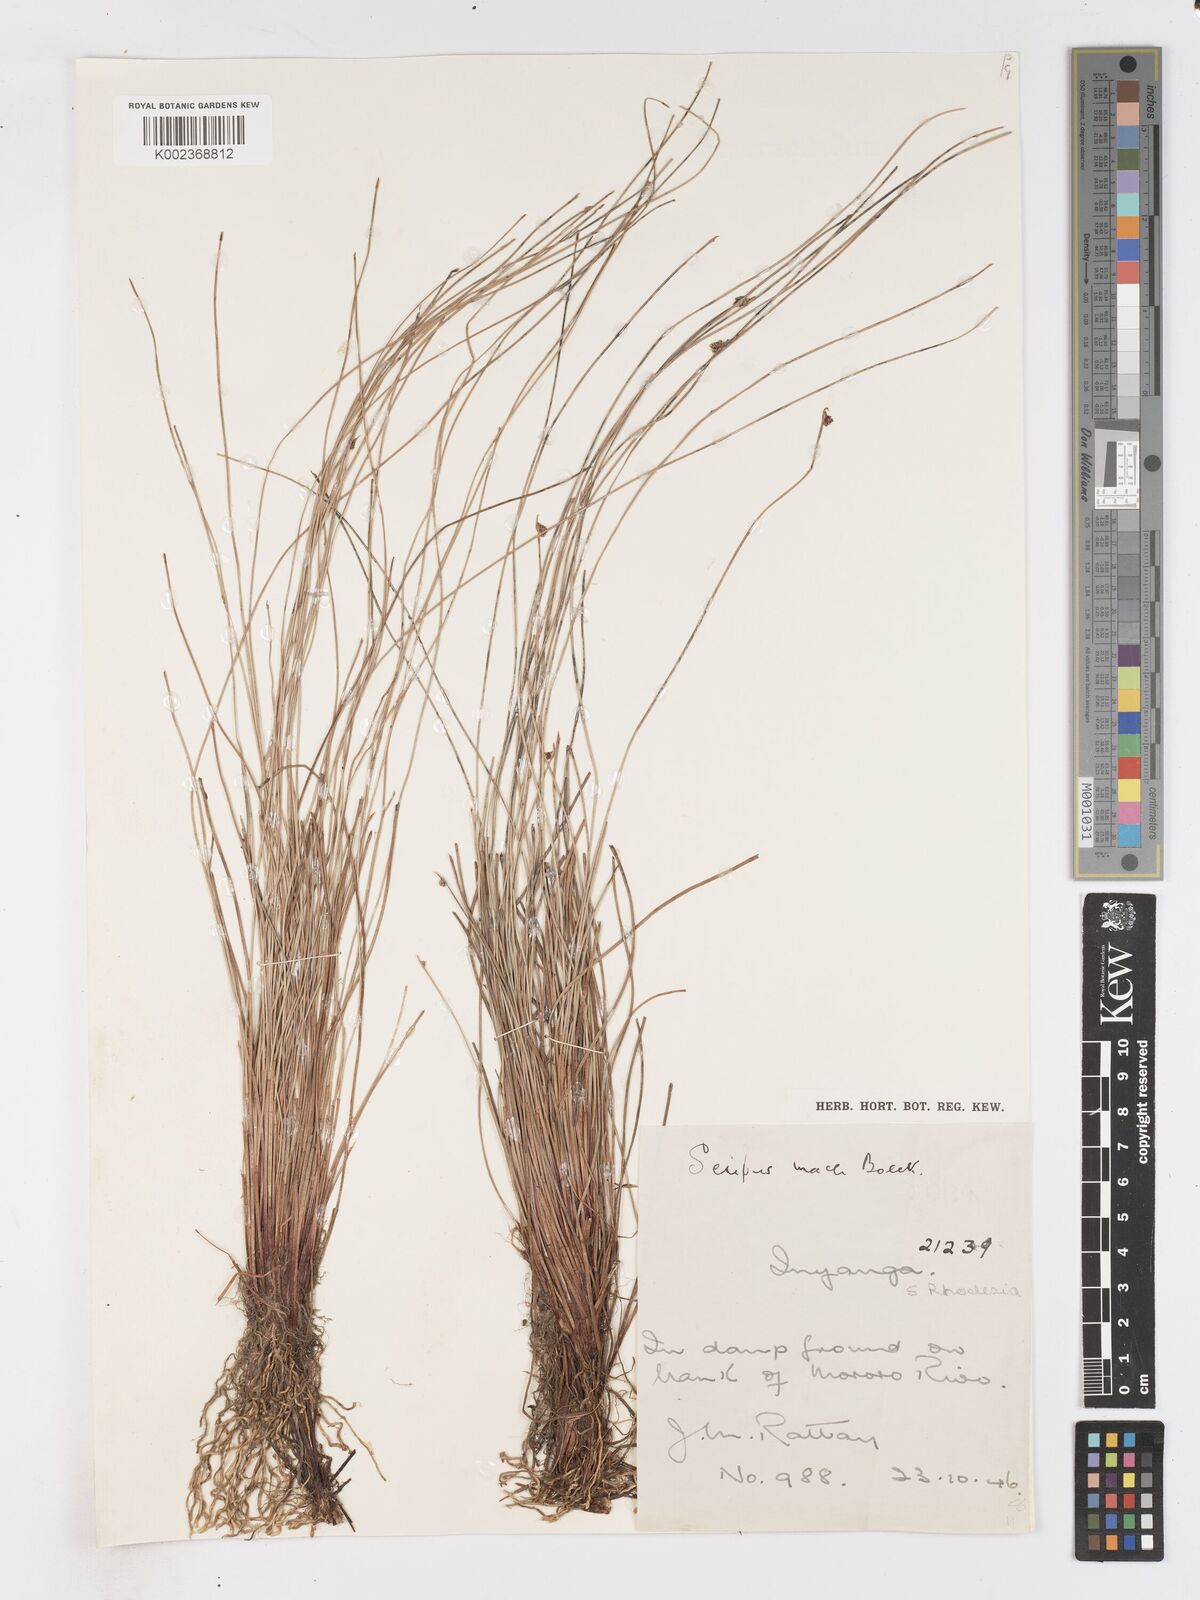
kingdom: Plantae
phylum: Tracheophyta
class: Liliopsida
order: Poales
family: Cyperaceae
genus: Isolepis
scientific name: Isolepis costata
